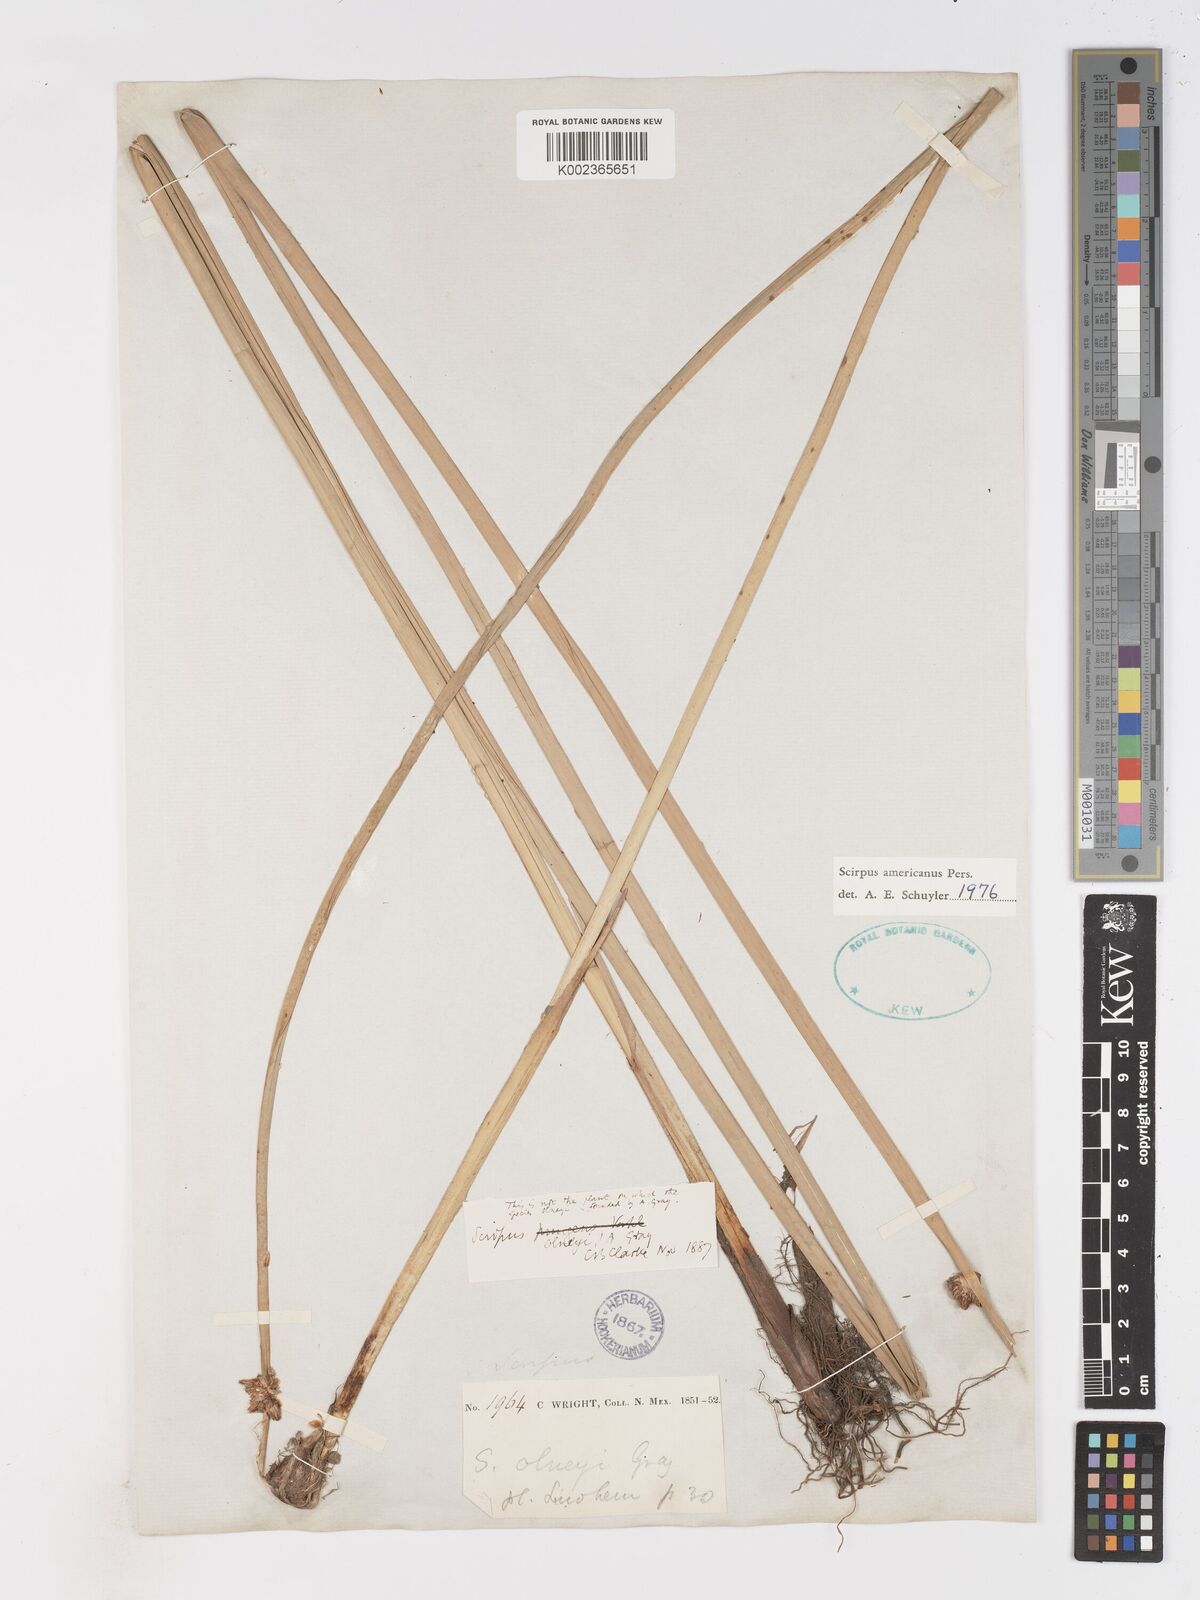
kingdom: Plantae
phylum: Tracheophyta
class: Liliopsida
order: Poales
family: Cyperaceae
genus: Schoenoplectus
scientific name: Schoenoplectus americanus
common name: American three-square bulrush
